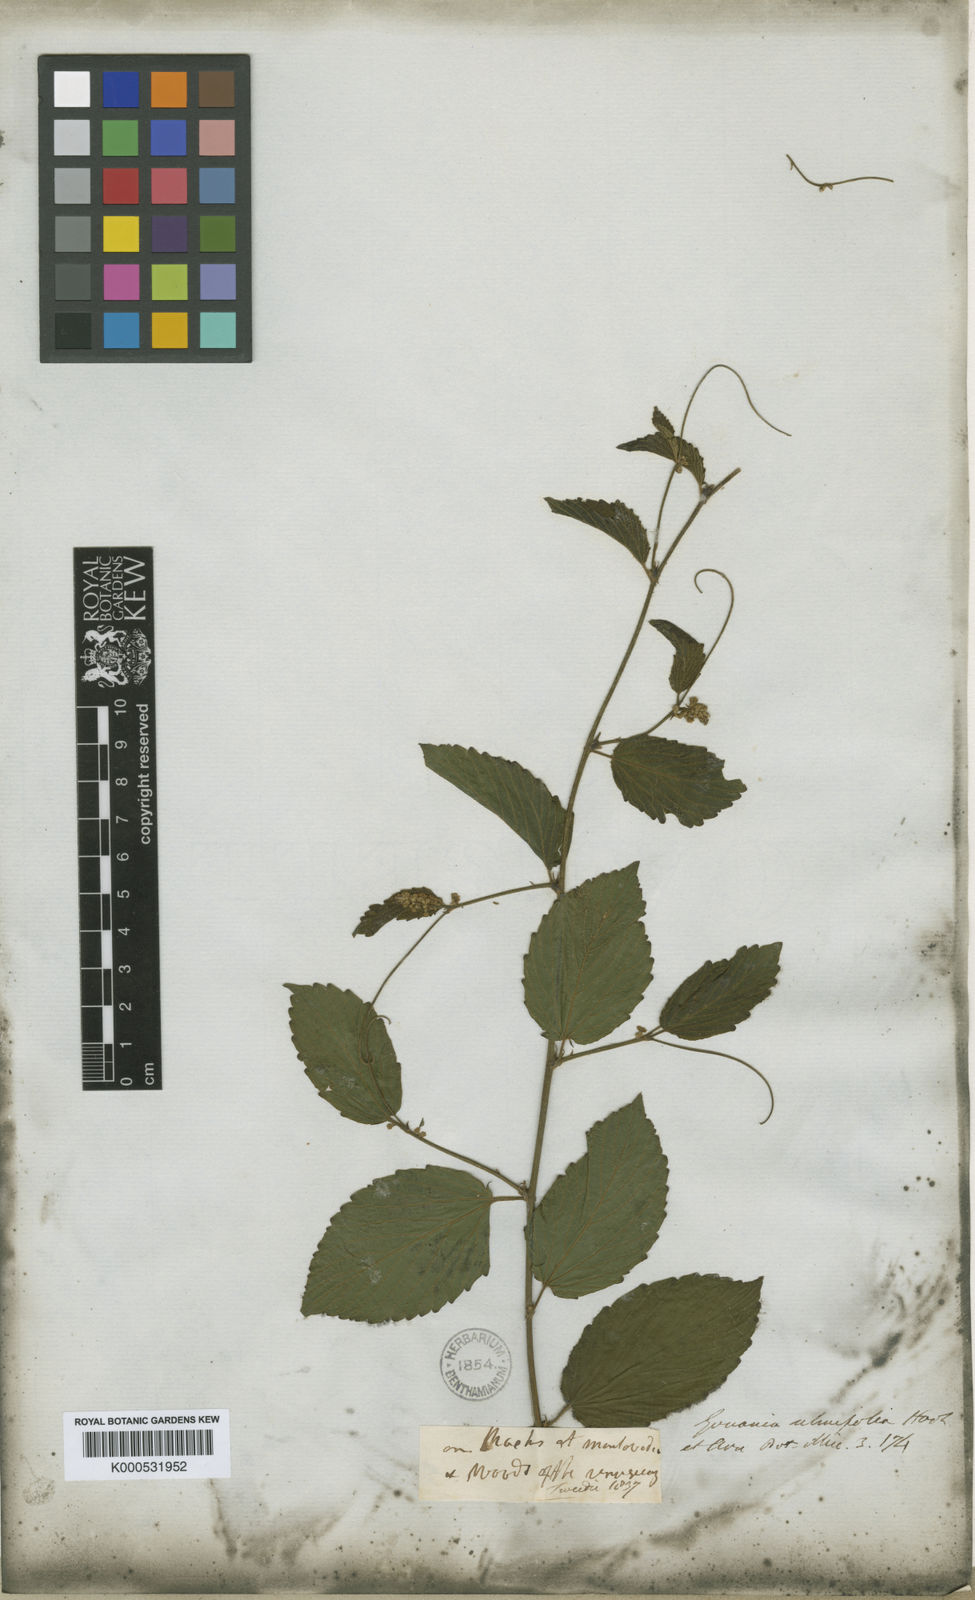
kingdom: Plantae
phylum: Tracheophyta
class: Magnoliopsida
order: Rosales
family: Rhamnaceae
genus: Gouania
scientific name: Gouania ulmifolia
